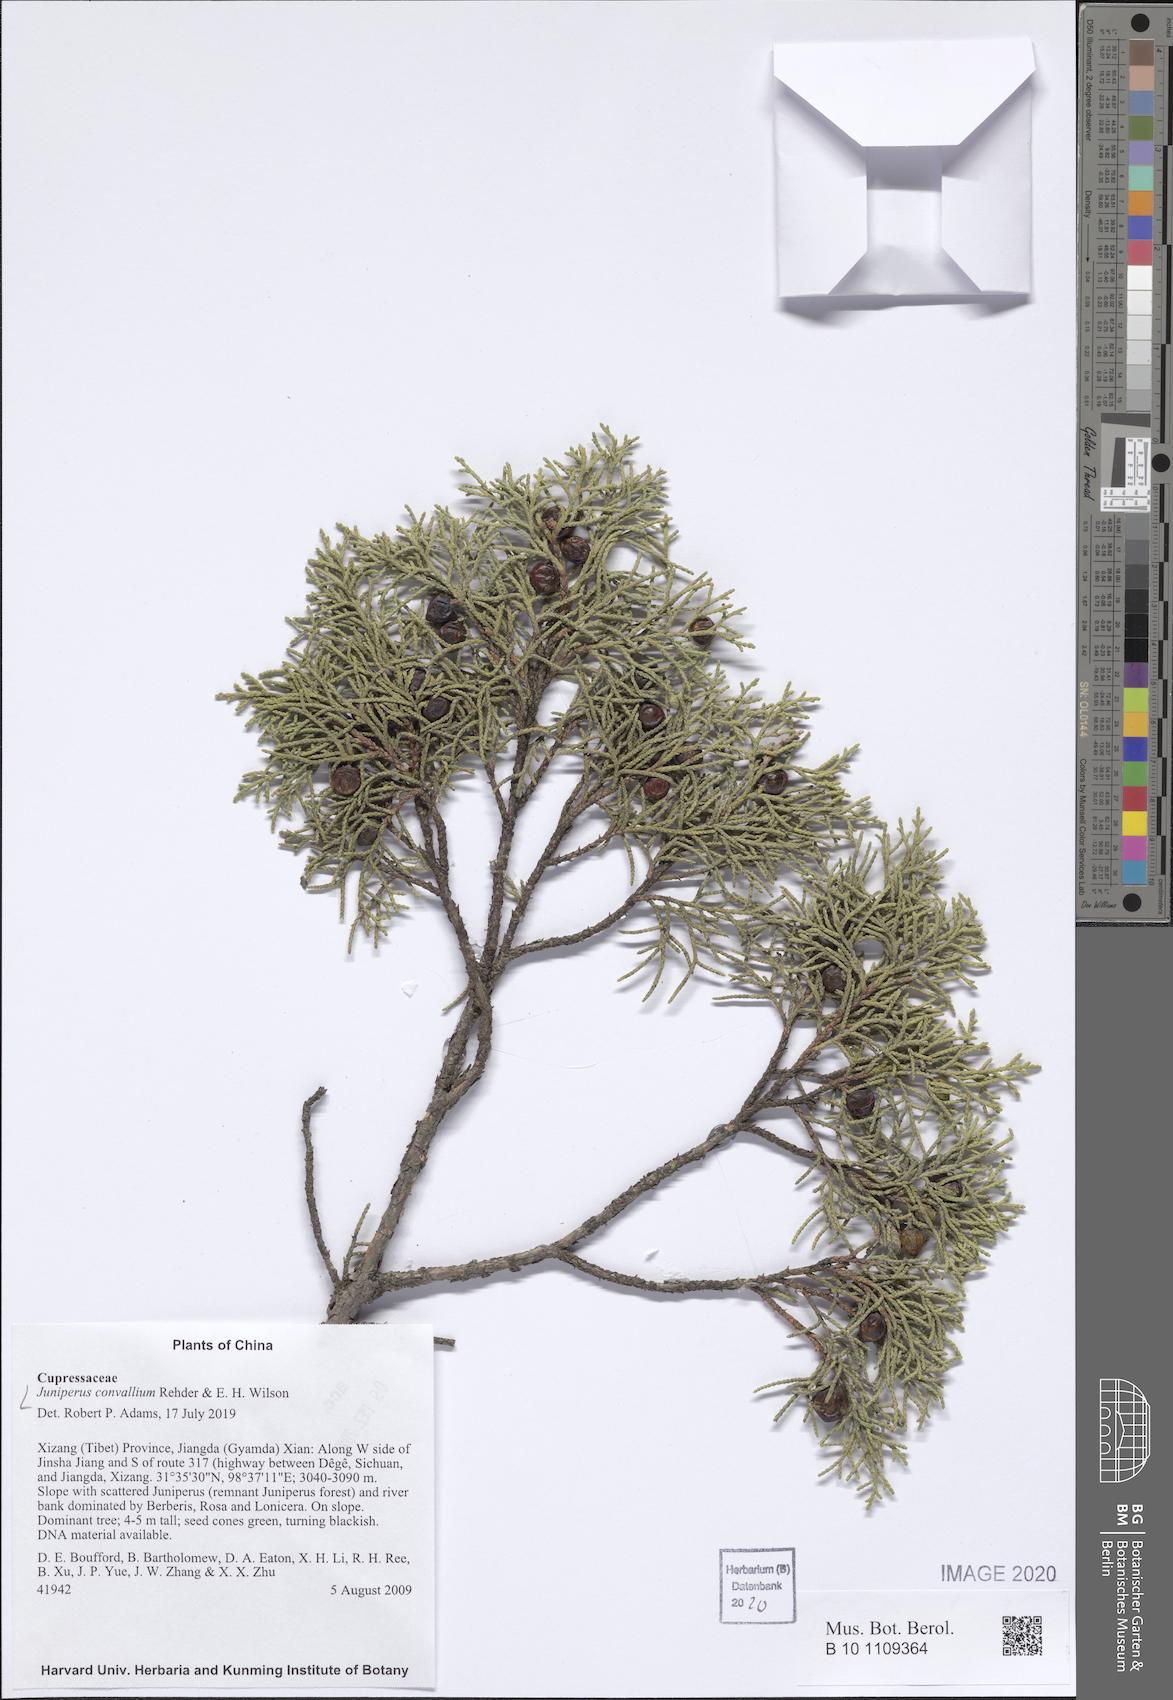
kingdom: Plantae
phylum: Tracheophyta
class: Pinopsida
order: Pinales
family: Cupressaceae
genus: Juniperus
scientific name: Juniperus convallium
